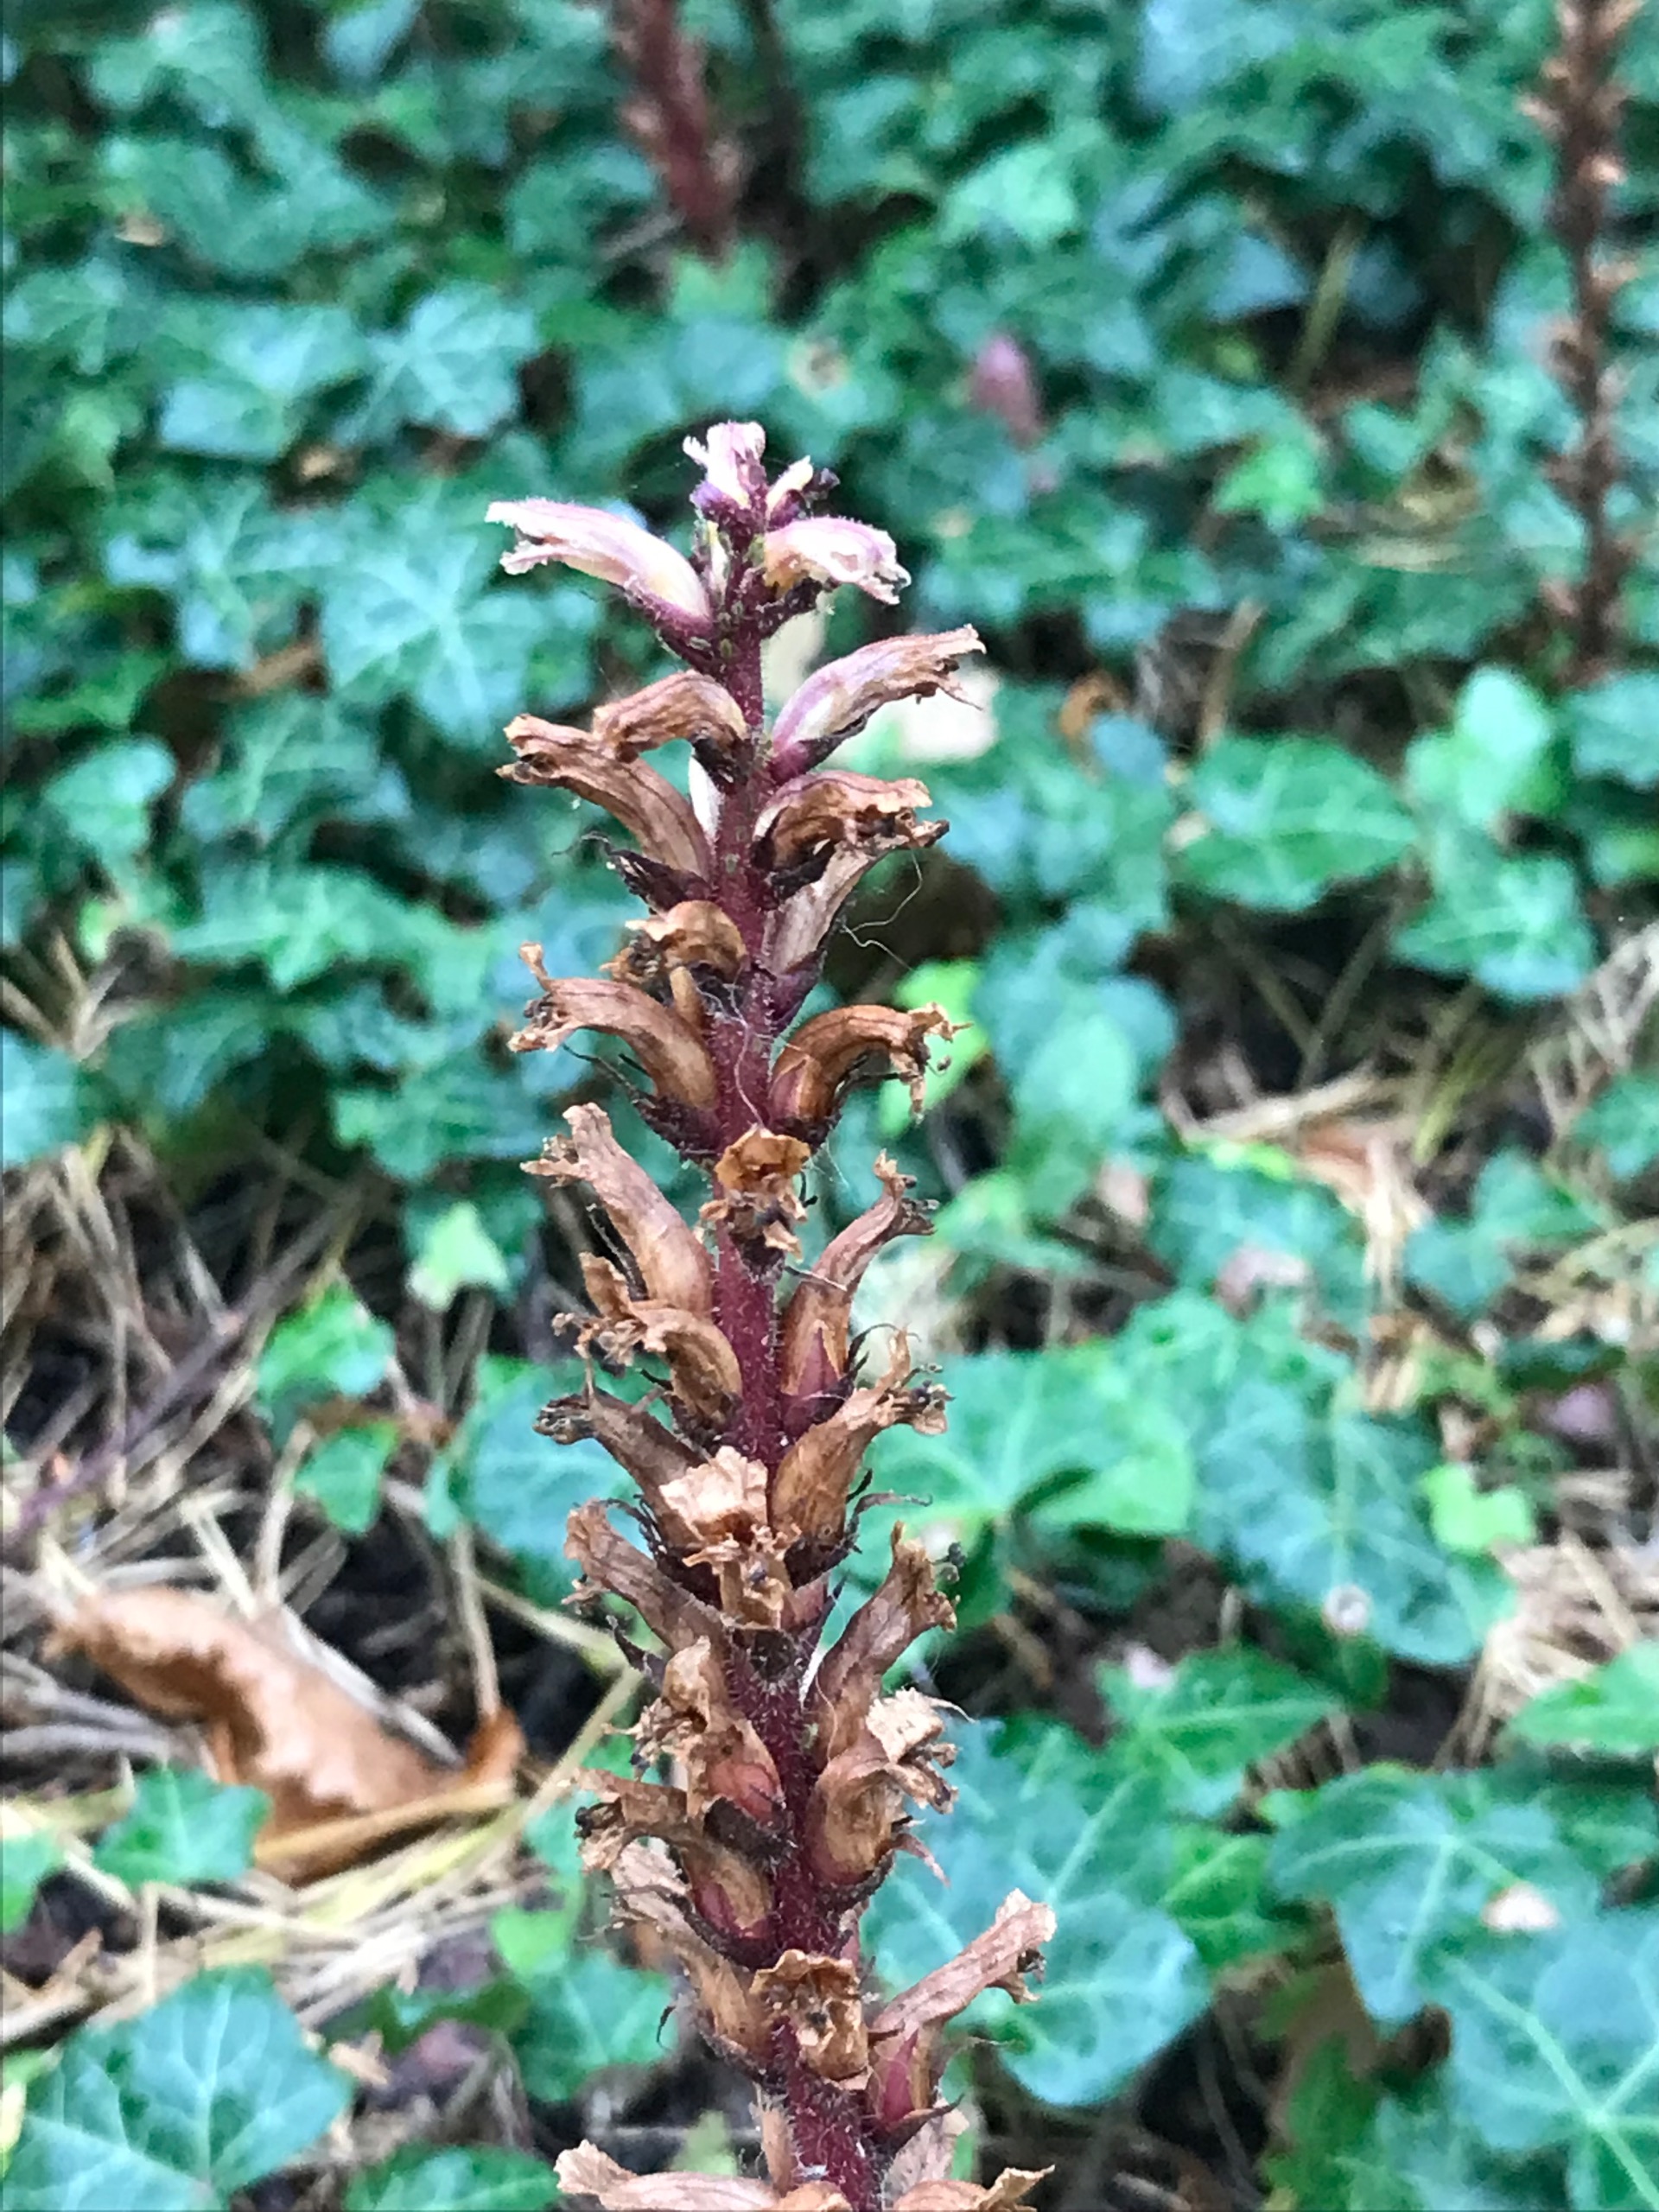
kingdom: Plantae
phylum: Tracheophyta
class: Magnoliopsida
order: Lamiales
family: Orobanchaceae
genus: Orobanche
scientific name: Orobanche hederae
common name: Vedbend-gyvelkvæler
